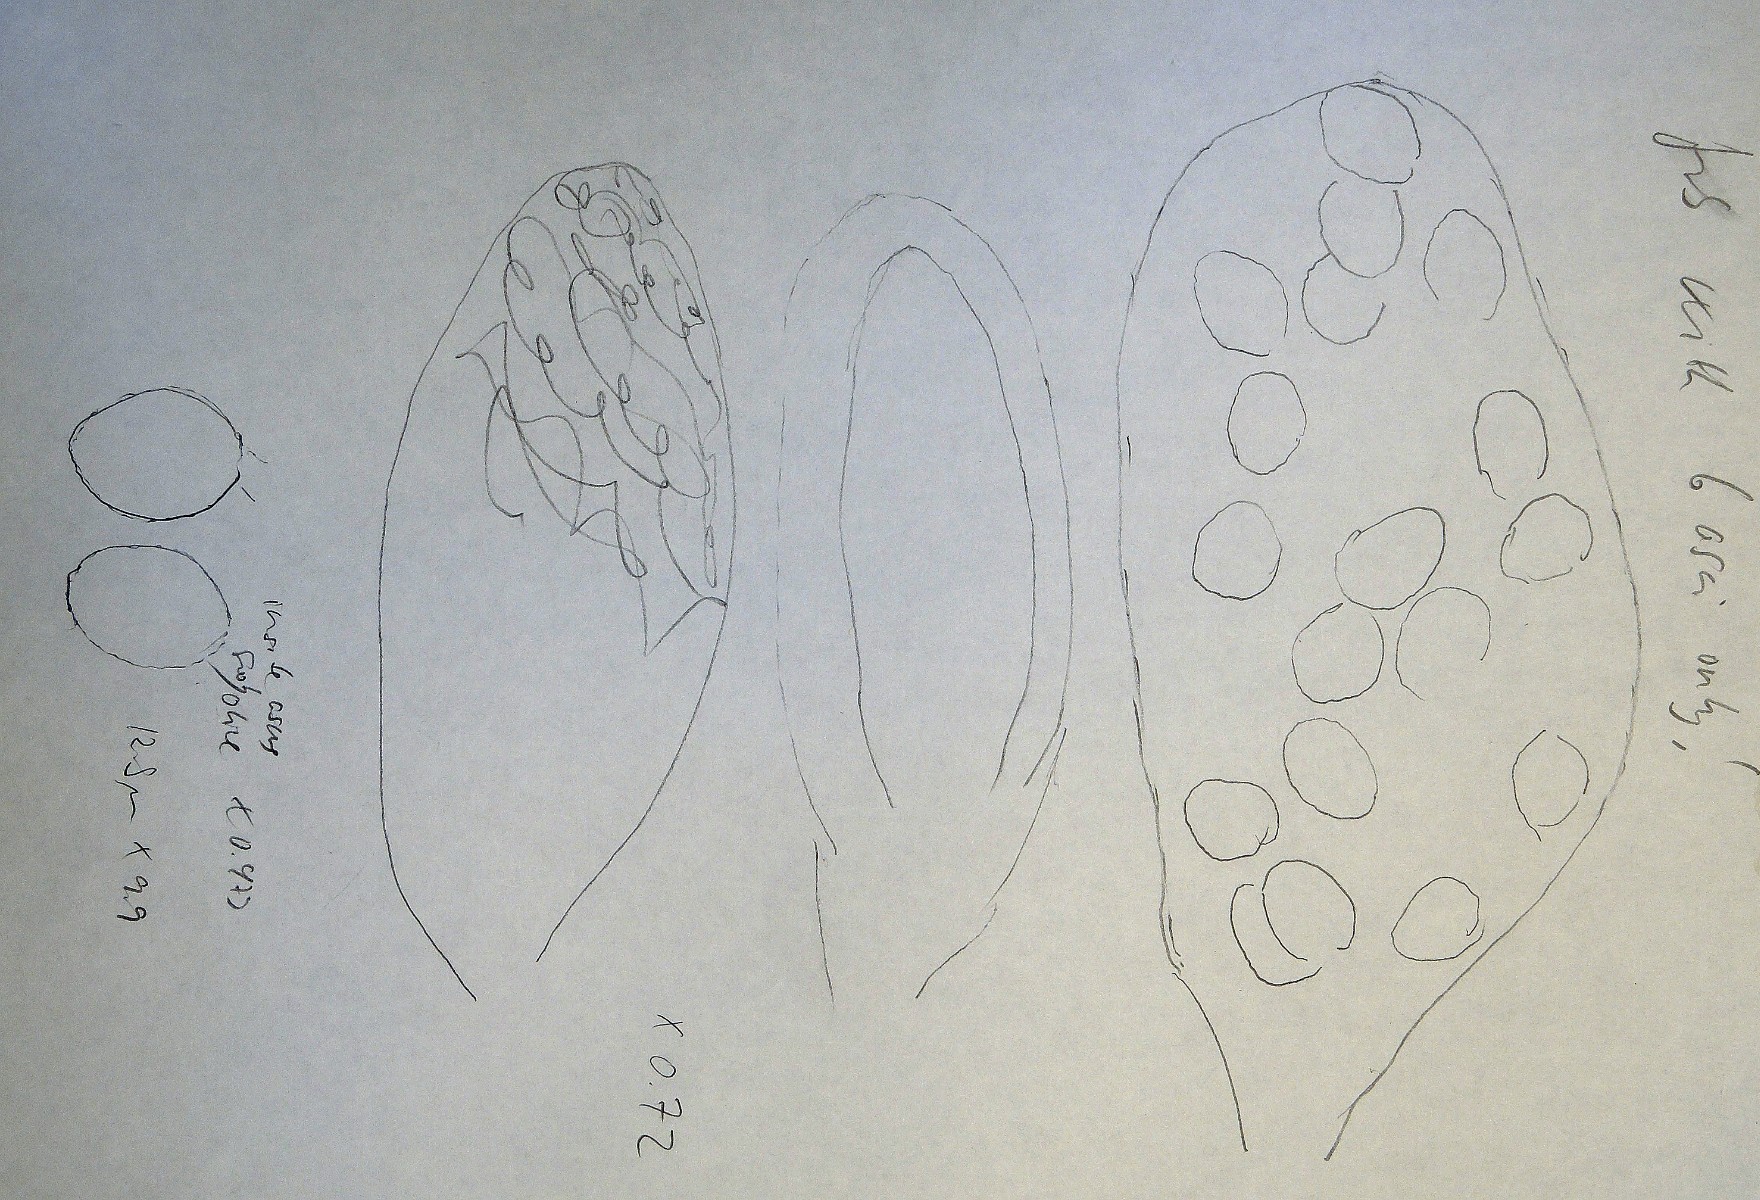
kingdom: Fungi
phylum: Ascomycota
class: Sordariomycetes
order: Sordariales
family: Schizotheciaceae
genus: Pseudoechria
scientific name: Pseudoechria curvicolla
